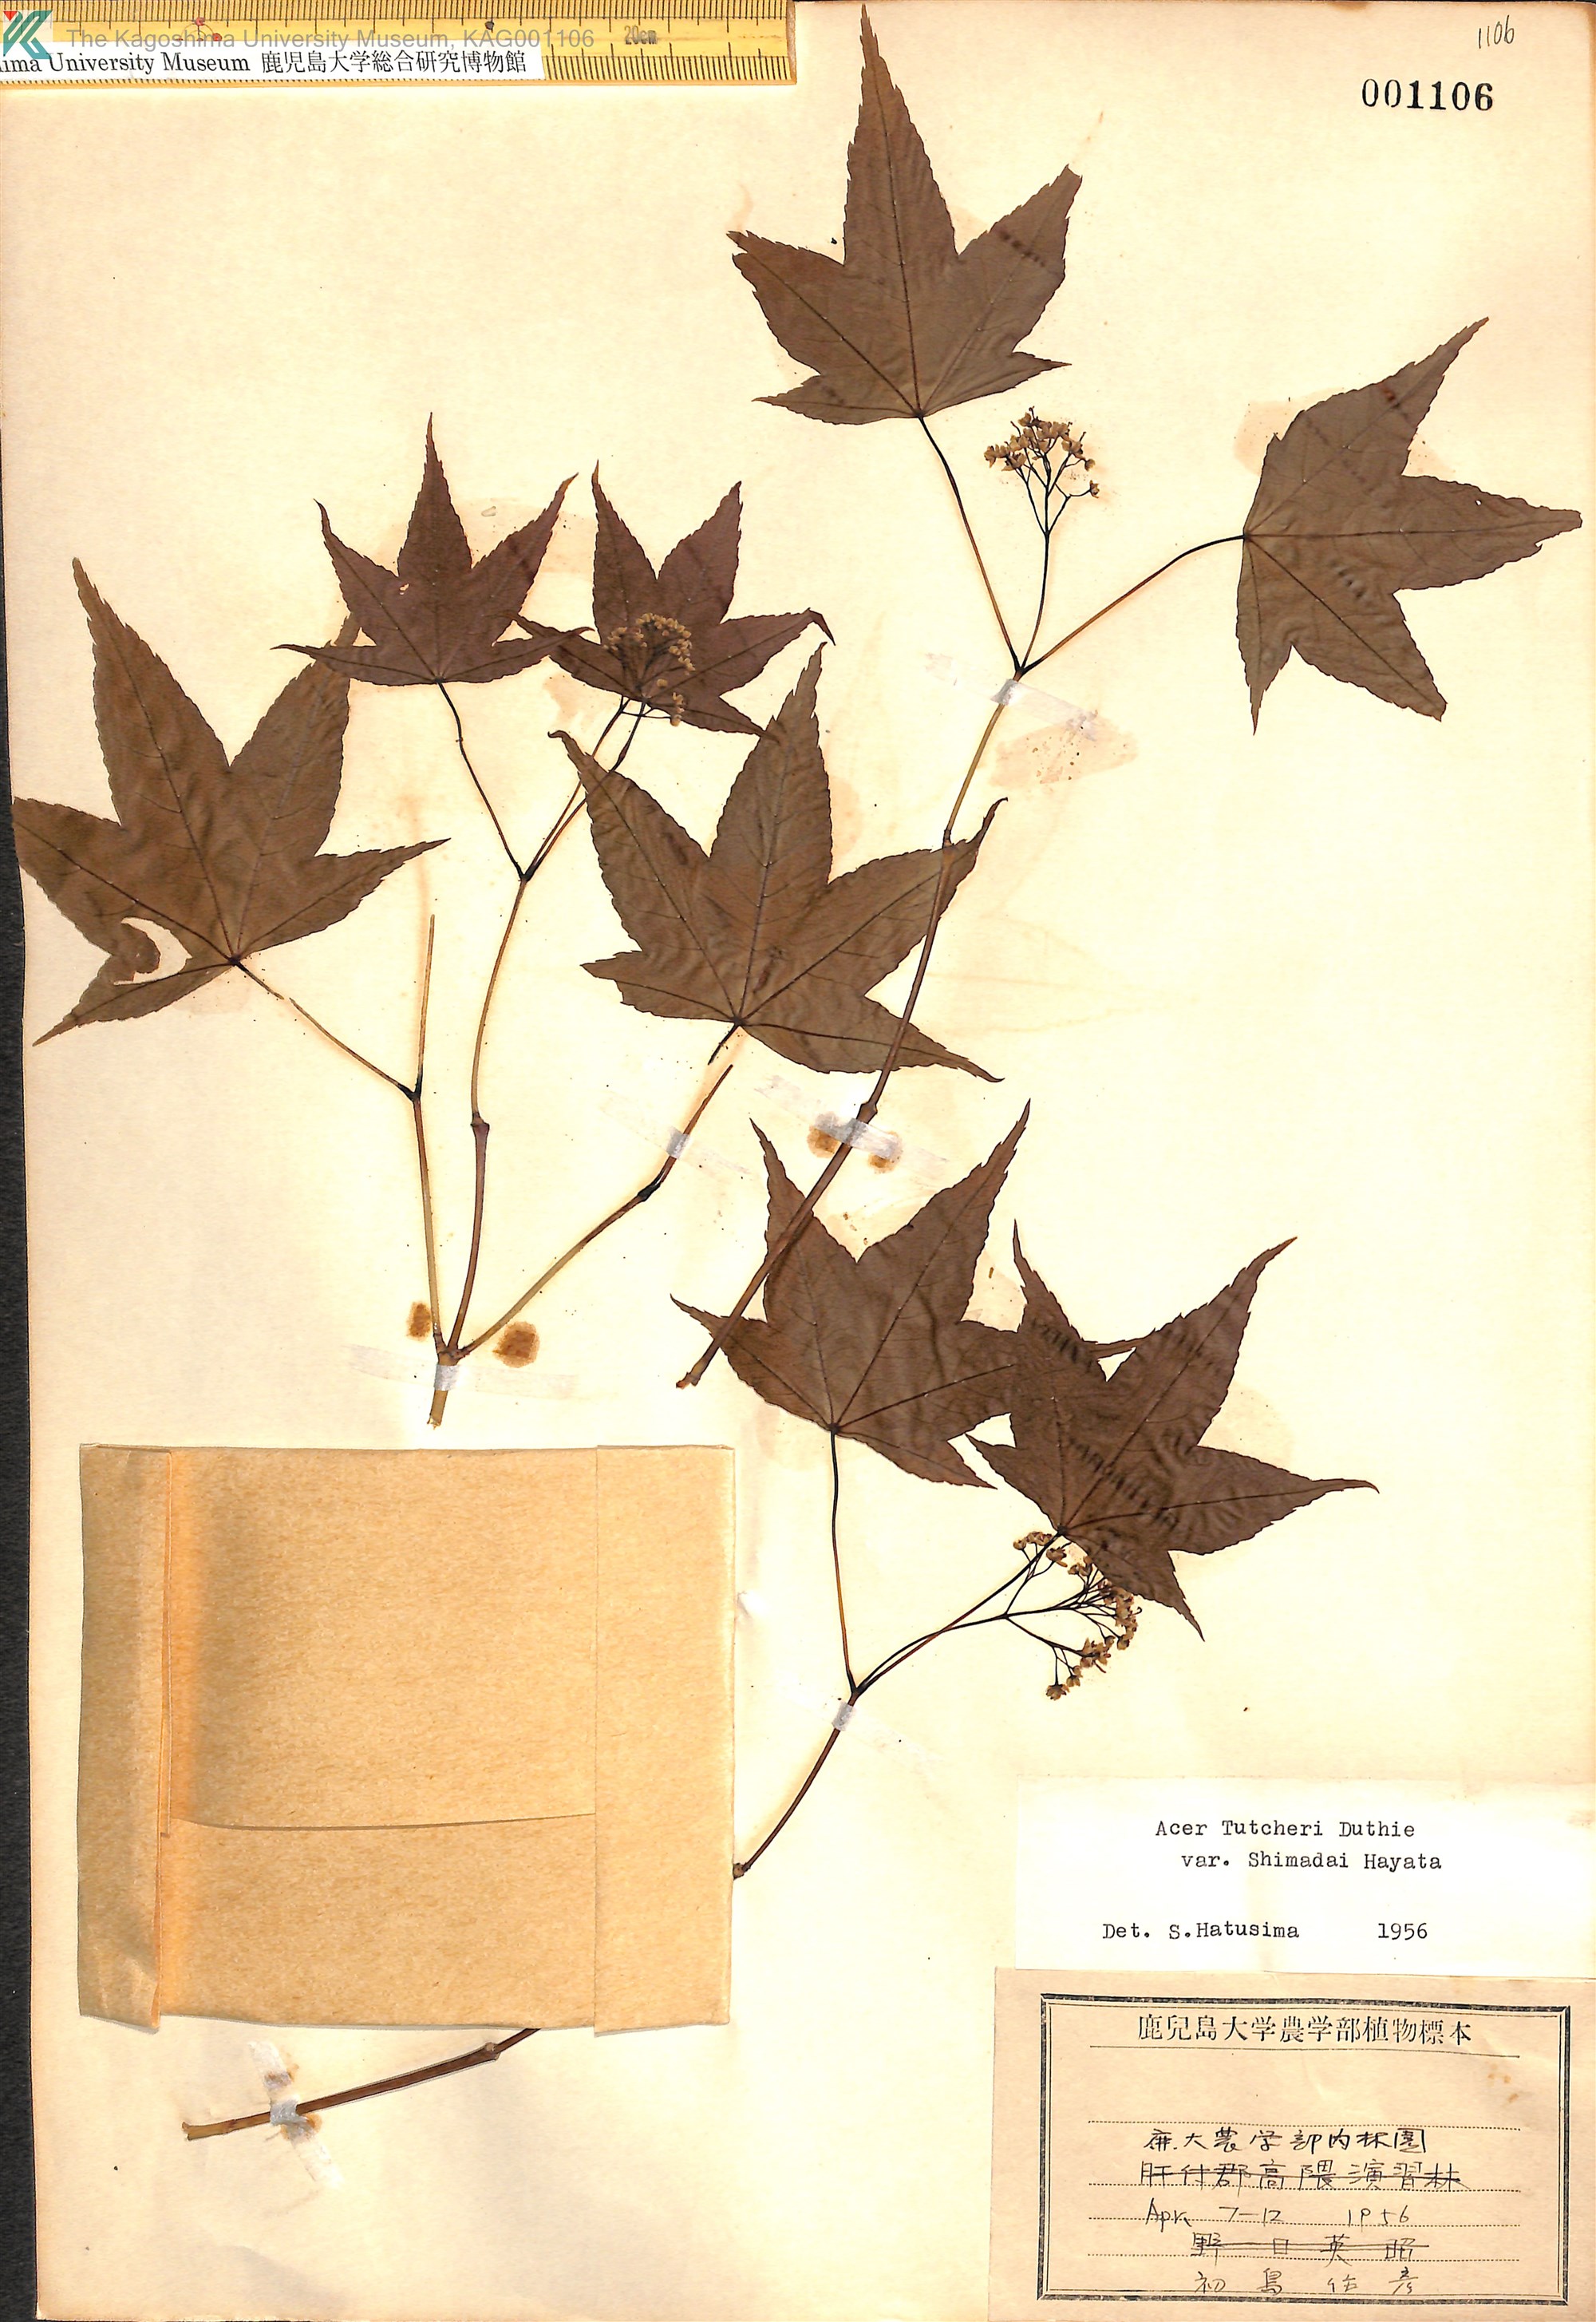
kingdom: Plantae
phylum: Tracheophyta
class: Magnoliopsida
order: Sapindales
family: Sapindaceae
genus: Acer
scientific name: Acer tutcheri
